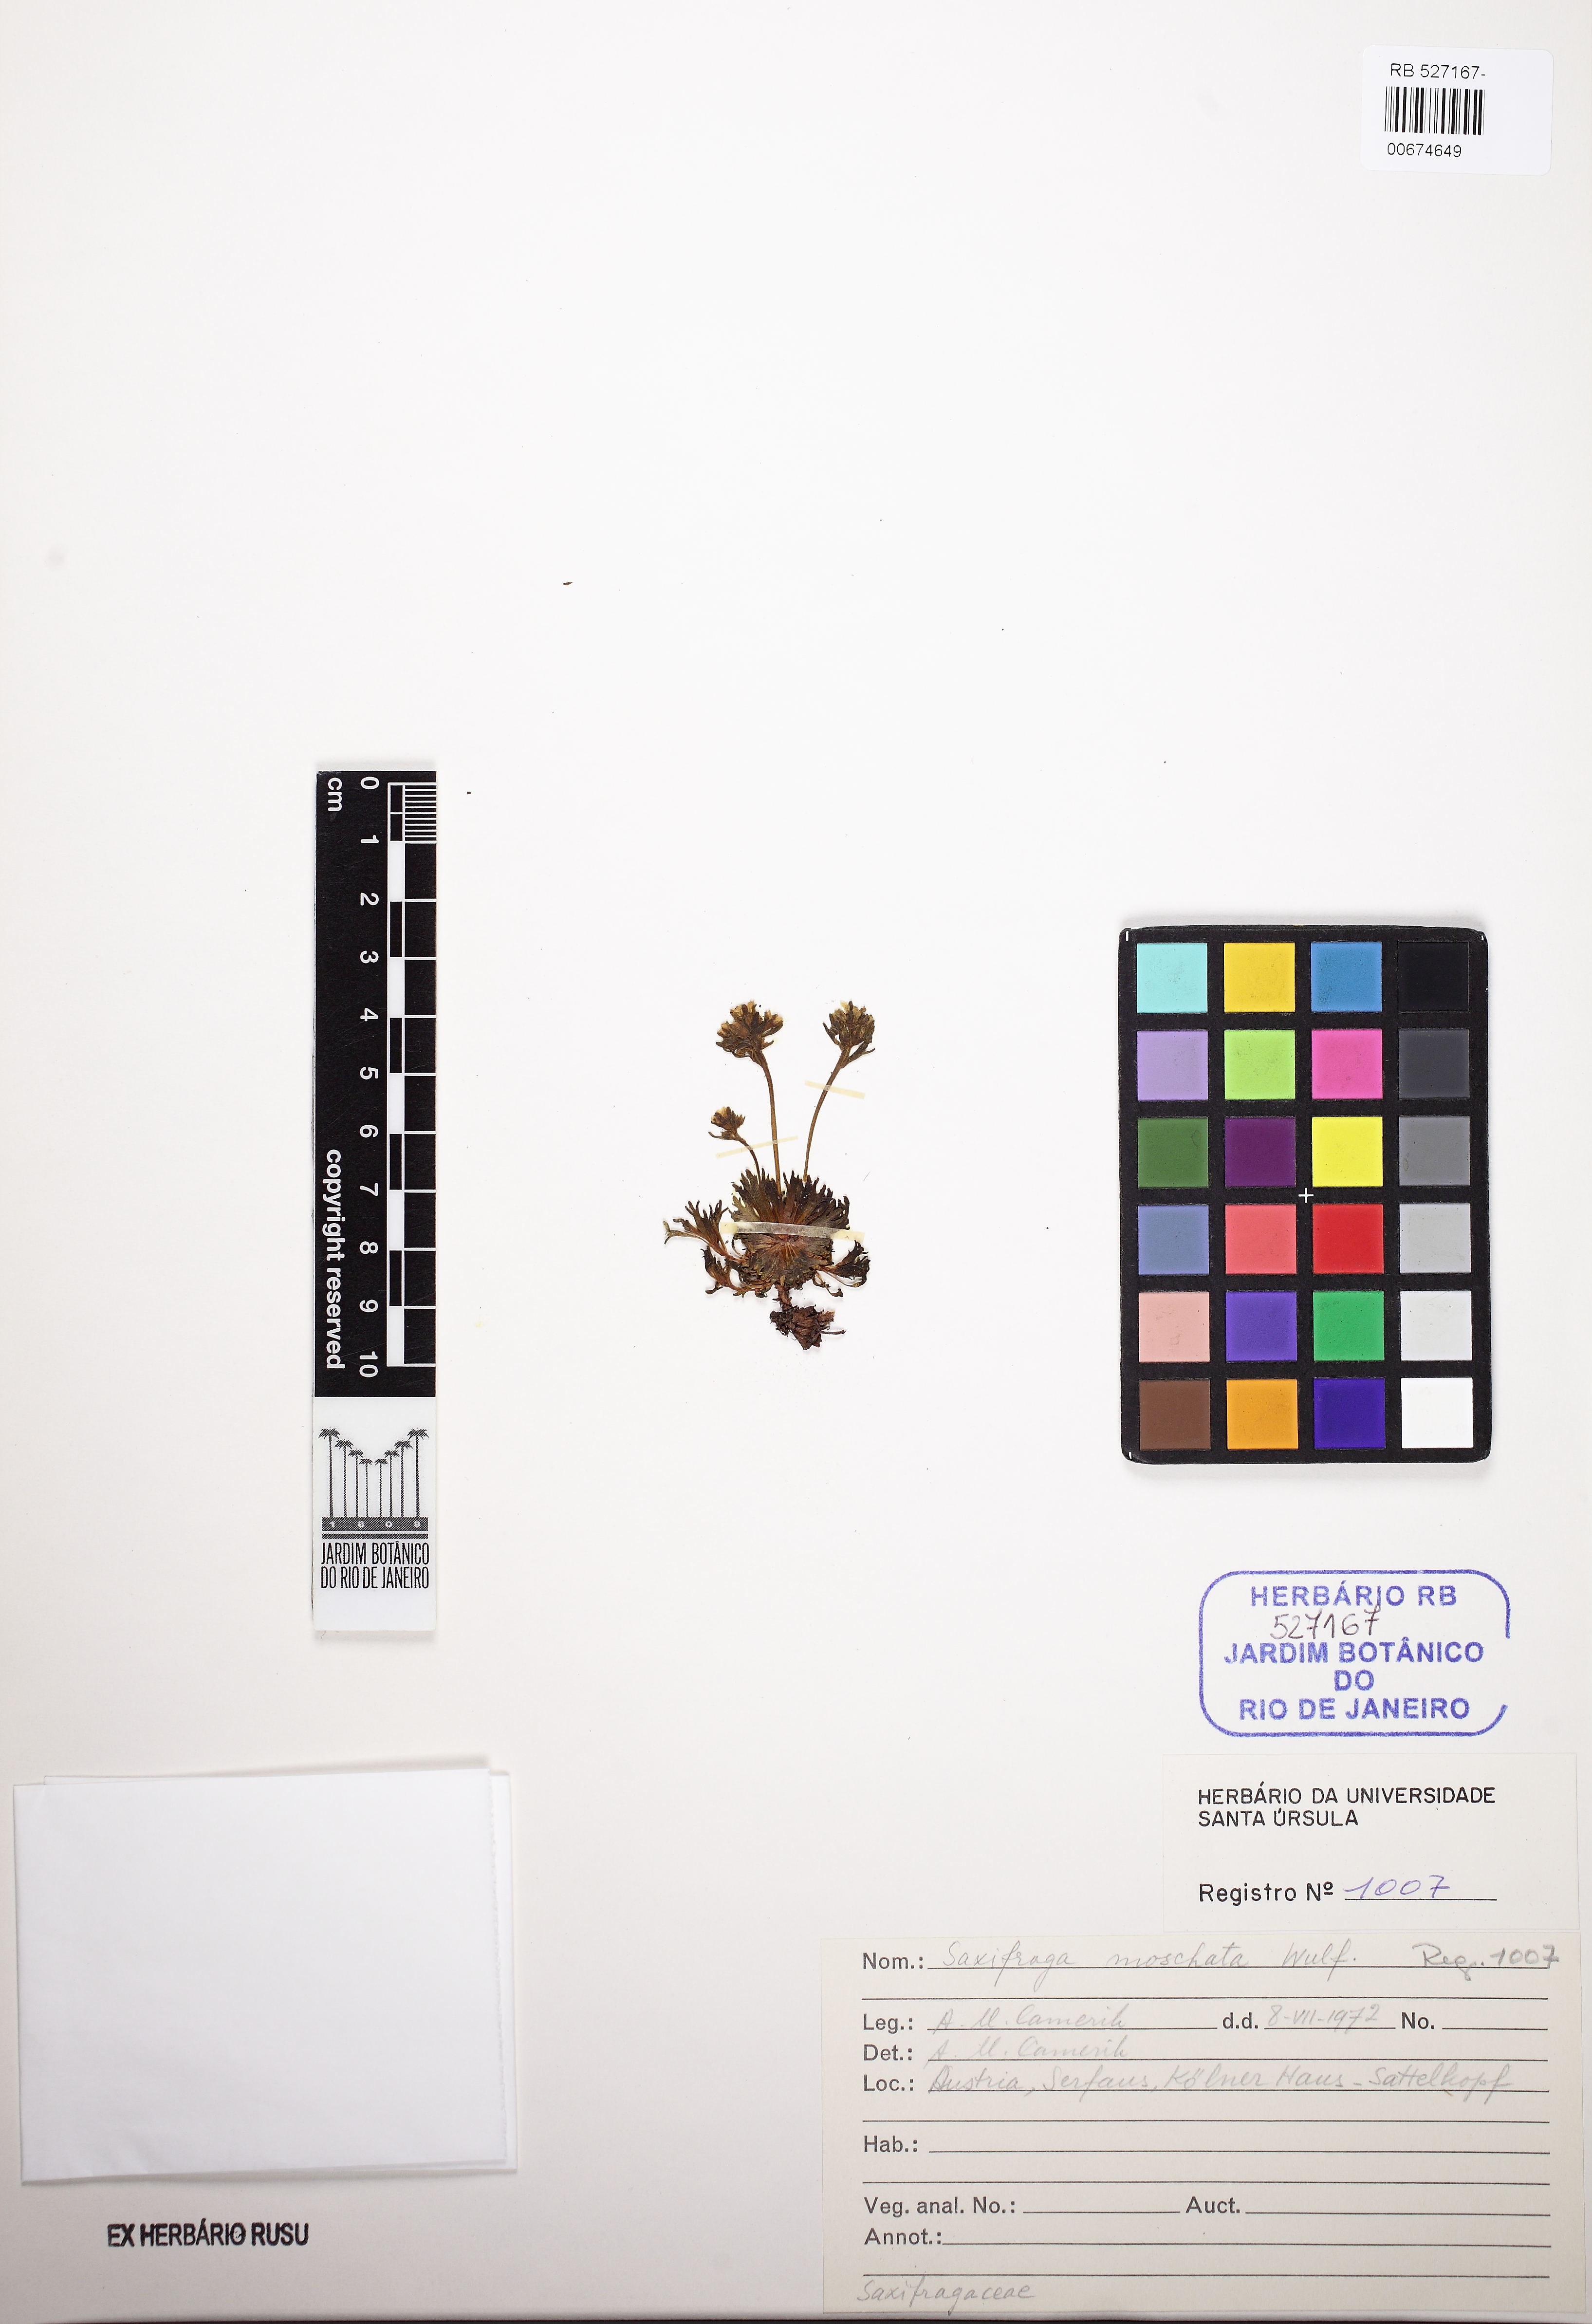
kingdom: Plantae
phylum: Tracheophyta
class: Magnoliopsida
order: Saxifragales
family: Saxifragaceae
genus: Saxifraga
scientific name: Saxifraga moschata
